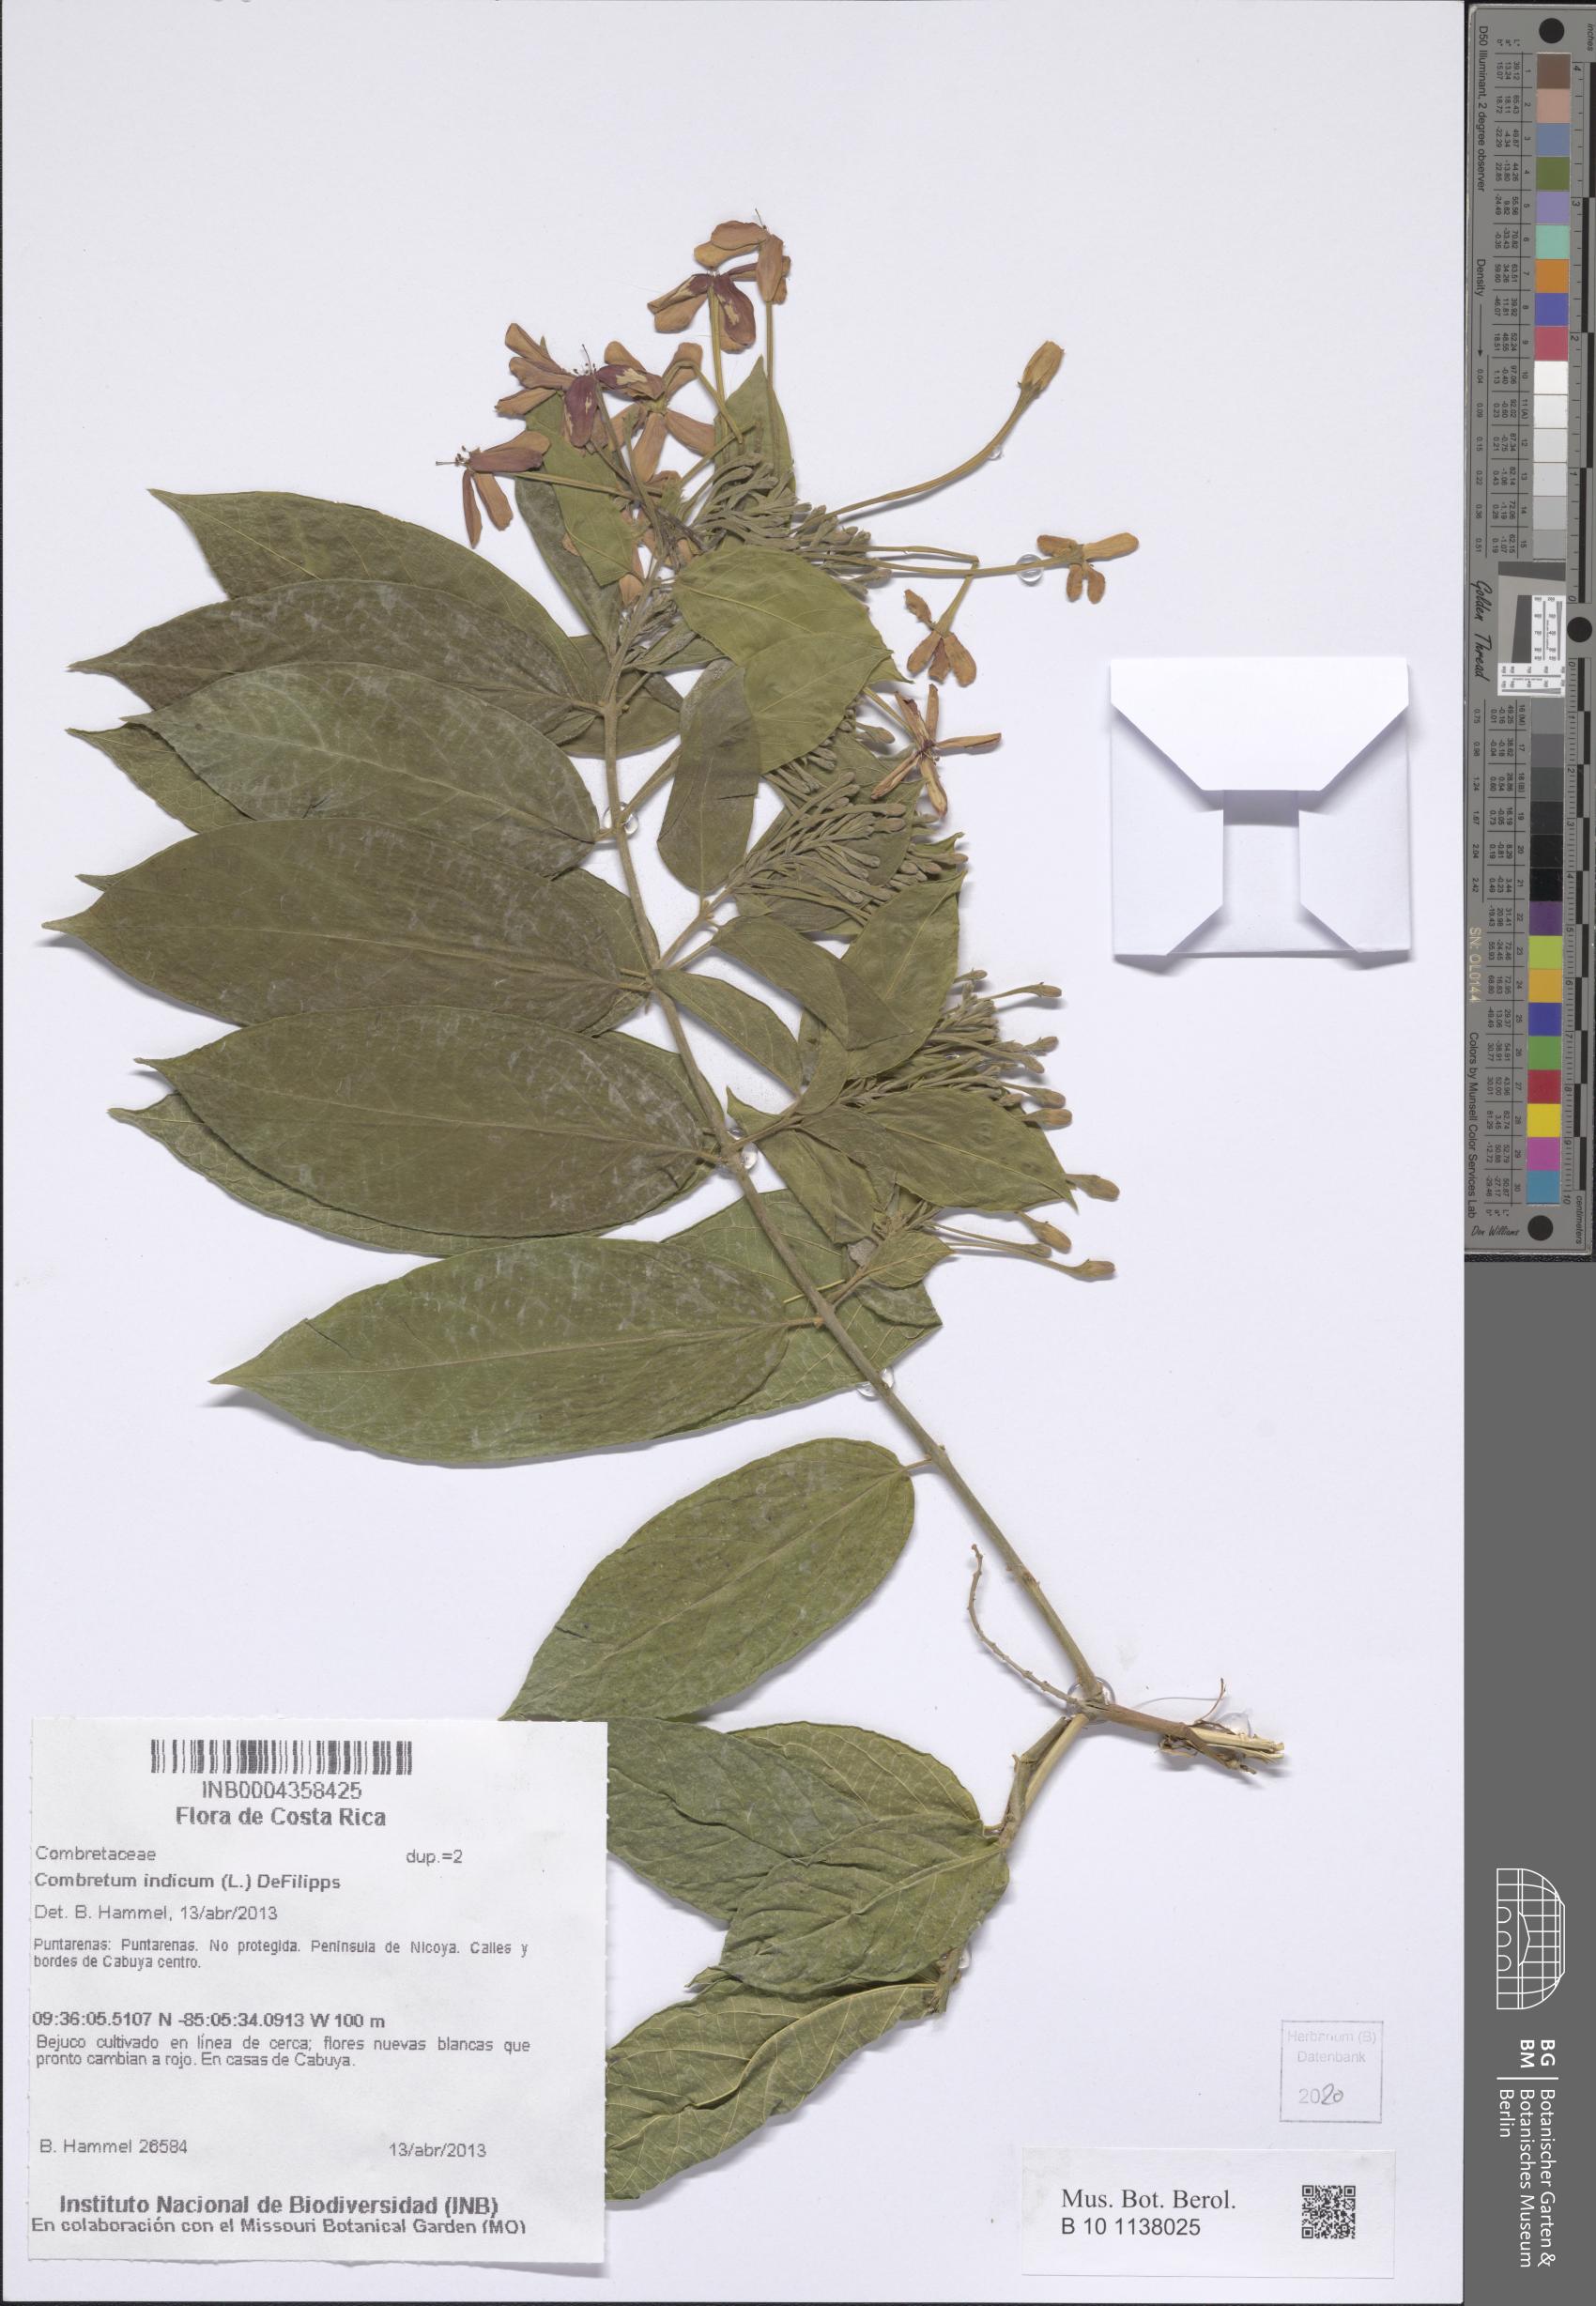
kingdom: Plantae
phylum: Tracheophyta
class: Magnoliopsida
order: Myrtales
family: Combretaceae
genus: Combretum
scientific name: Combretum indicum
